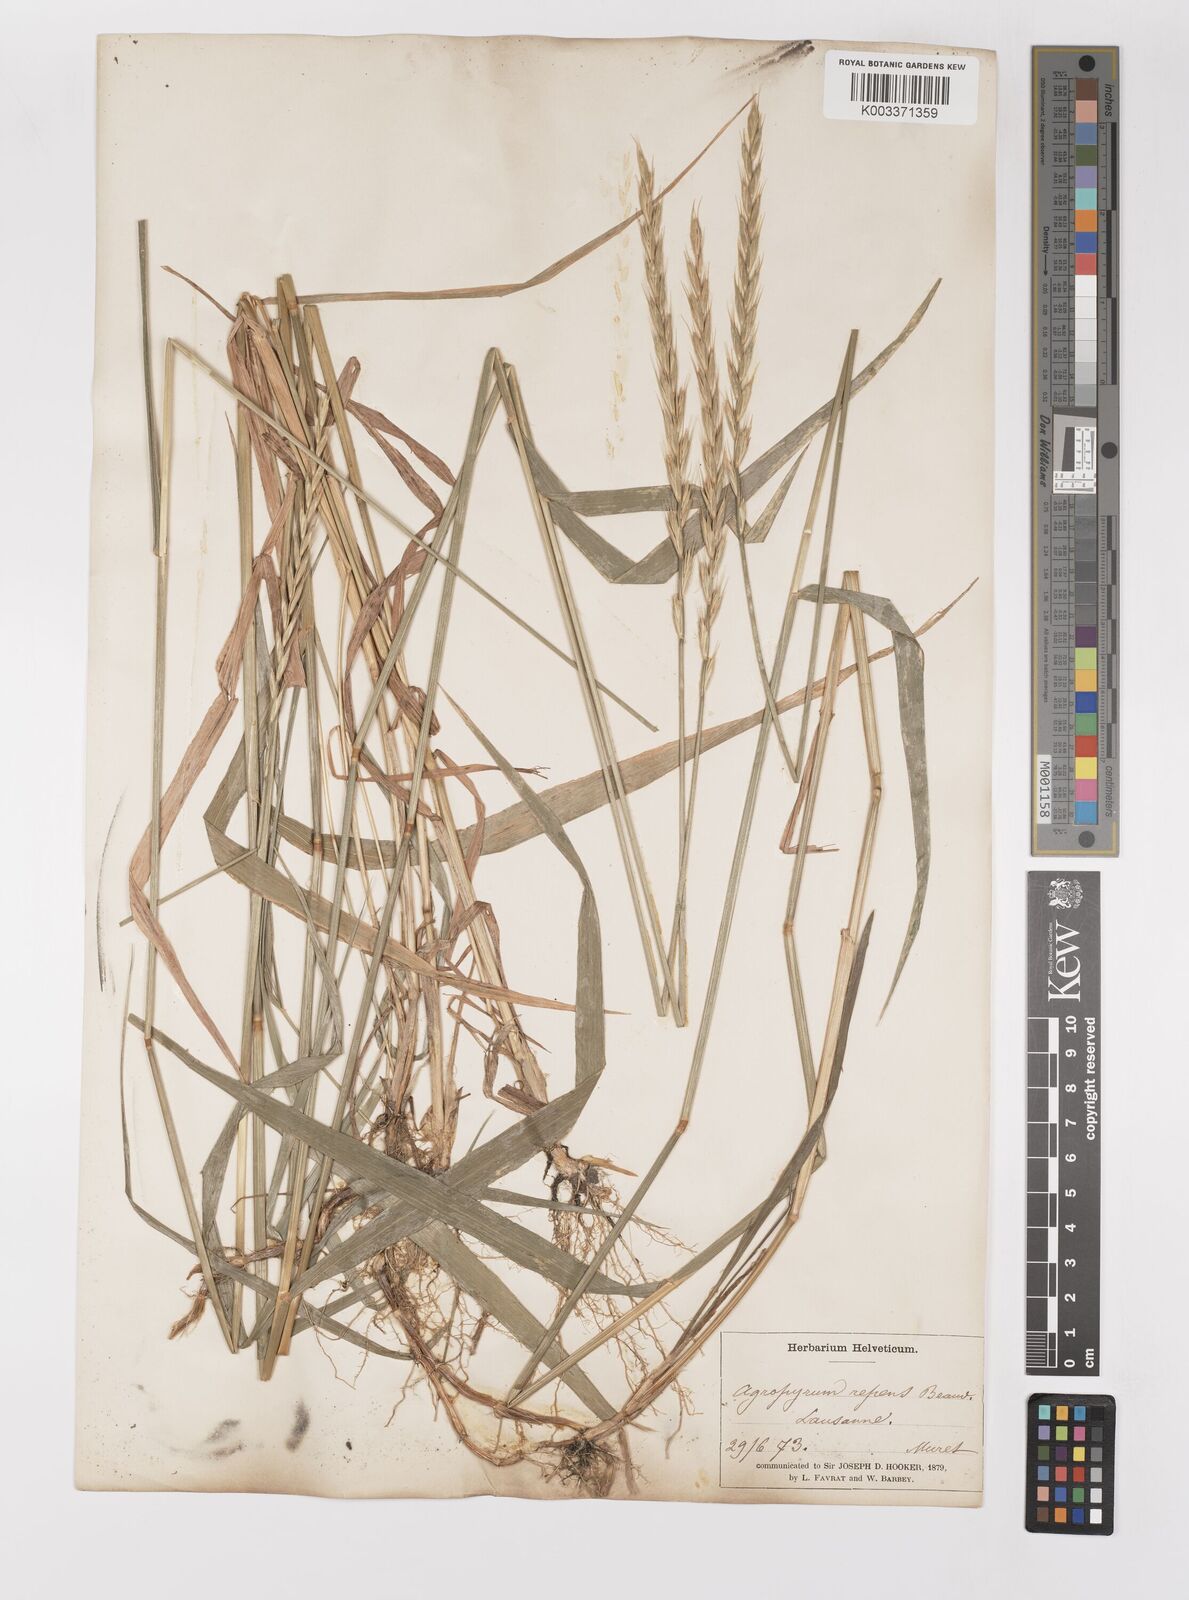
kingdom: Plantae
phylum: Tracheophyta
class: Liliopsida
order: Poales
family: Poaceae
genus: Elymus
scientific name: Elymus repens
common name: Quackgrass
